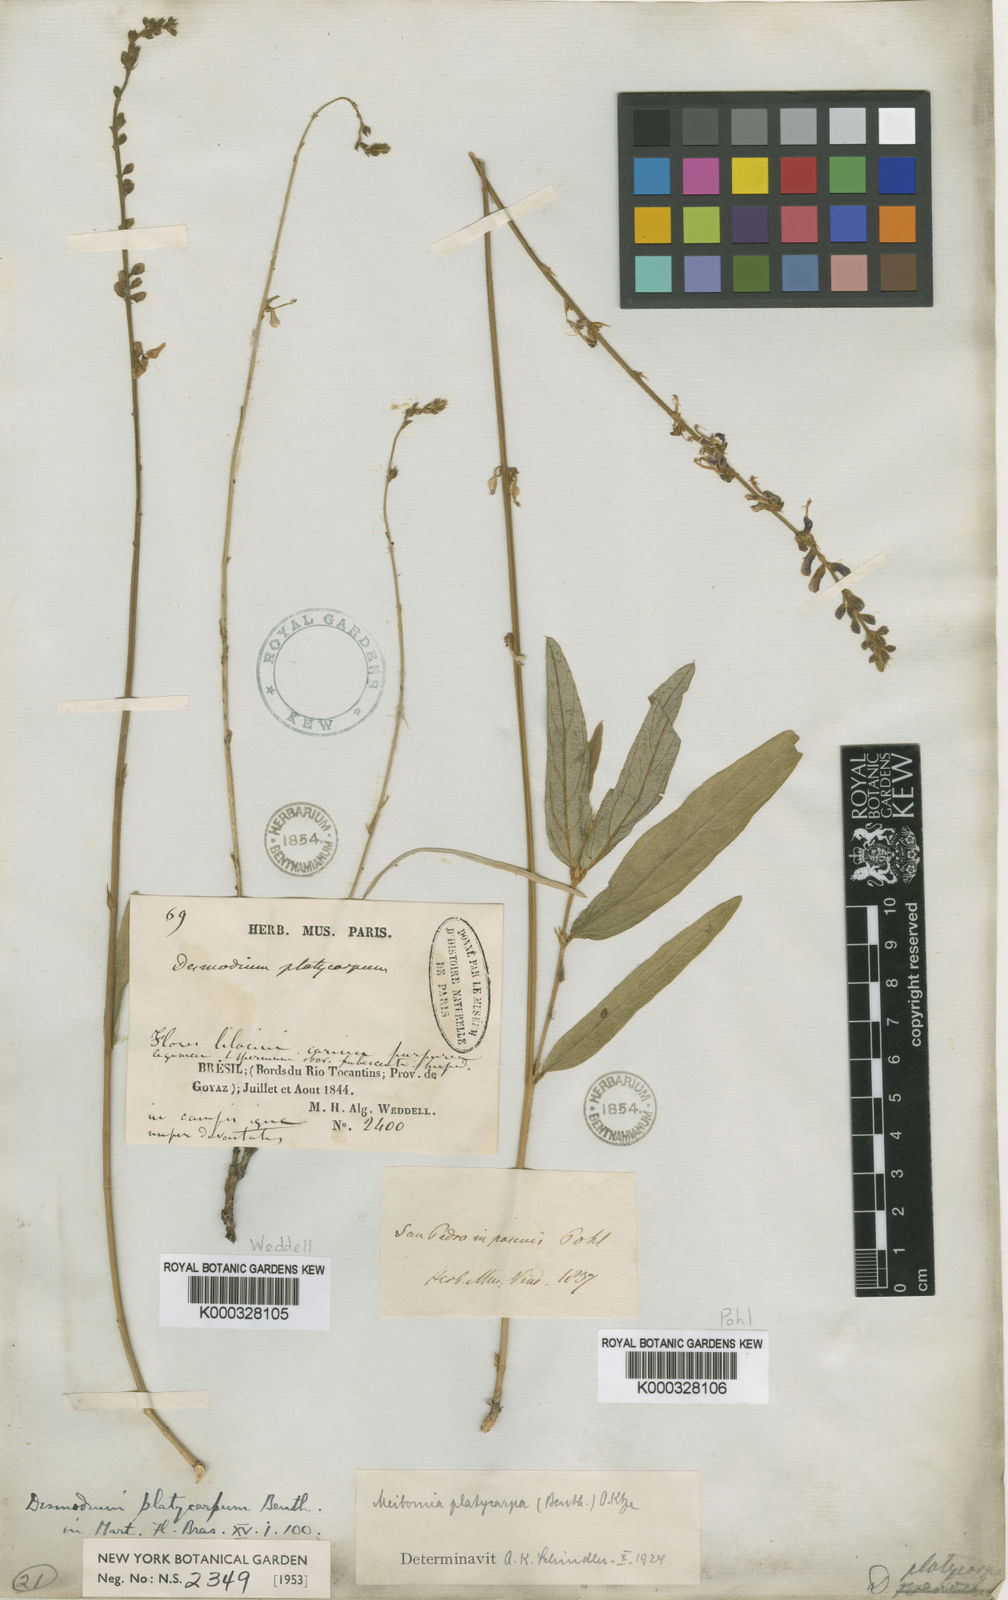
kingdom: Plantae
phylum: Tracheophyta
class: Magnoliopsida
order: Fabales
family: Fabaceae
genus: Desmodium
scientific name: Desmodium platycarpum
